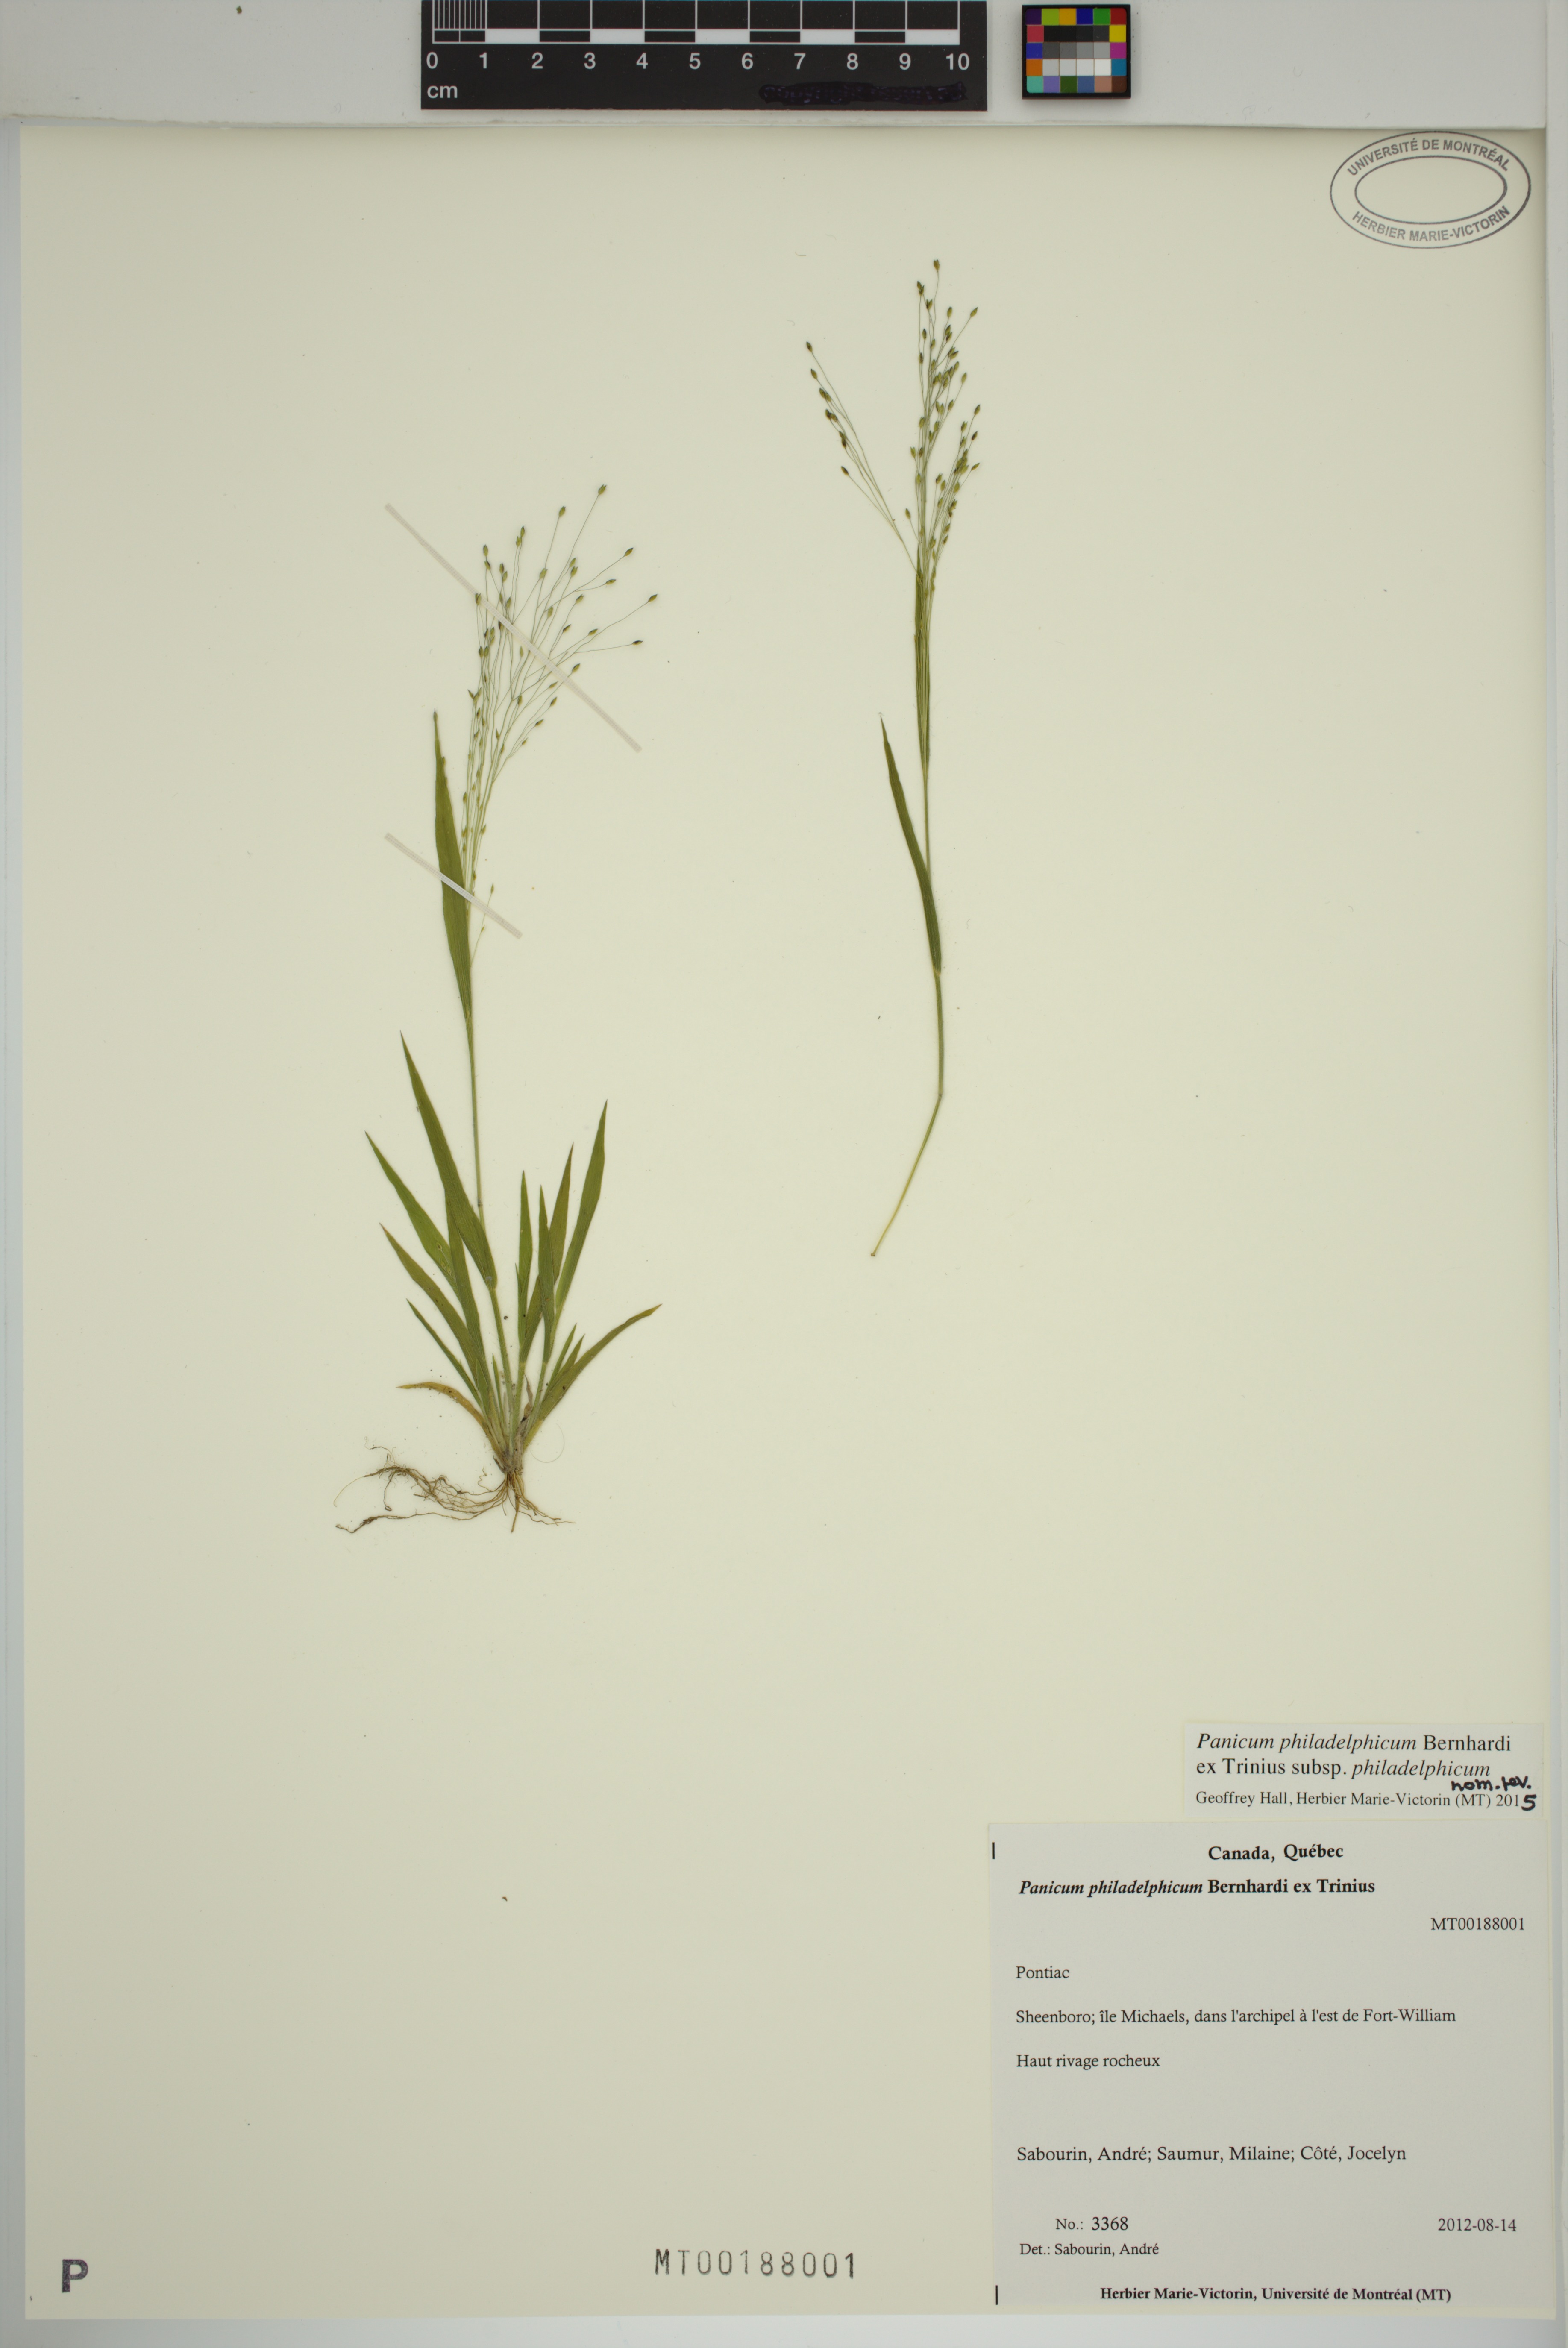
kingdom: Plantae
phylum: Tracheophyta
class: Liliopsida
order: Poales
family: Poaceae
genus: Panicum
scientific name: Panicum philadelphicum
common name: Philadelphia witchgrass
